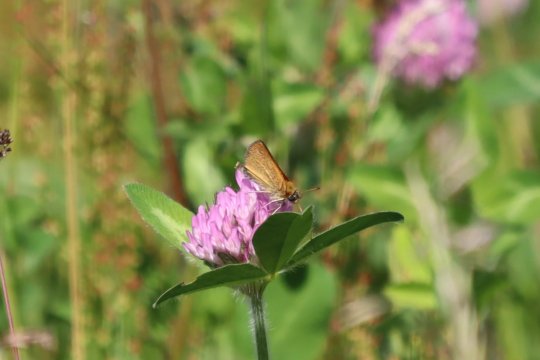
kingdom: Animalia
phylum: Arthropoda
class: Insecta
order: Lepidoptera
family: Hesperiidae
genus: Thymelicus
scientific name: Thymelicus lineola
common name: European Skipper
